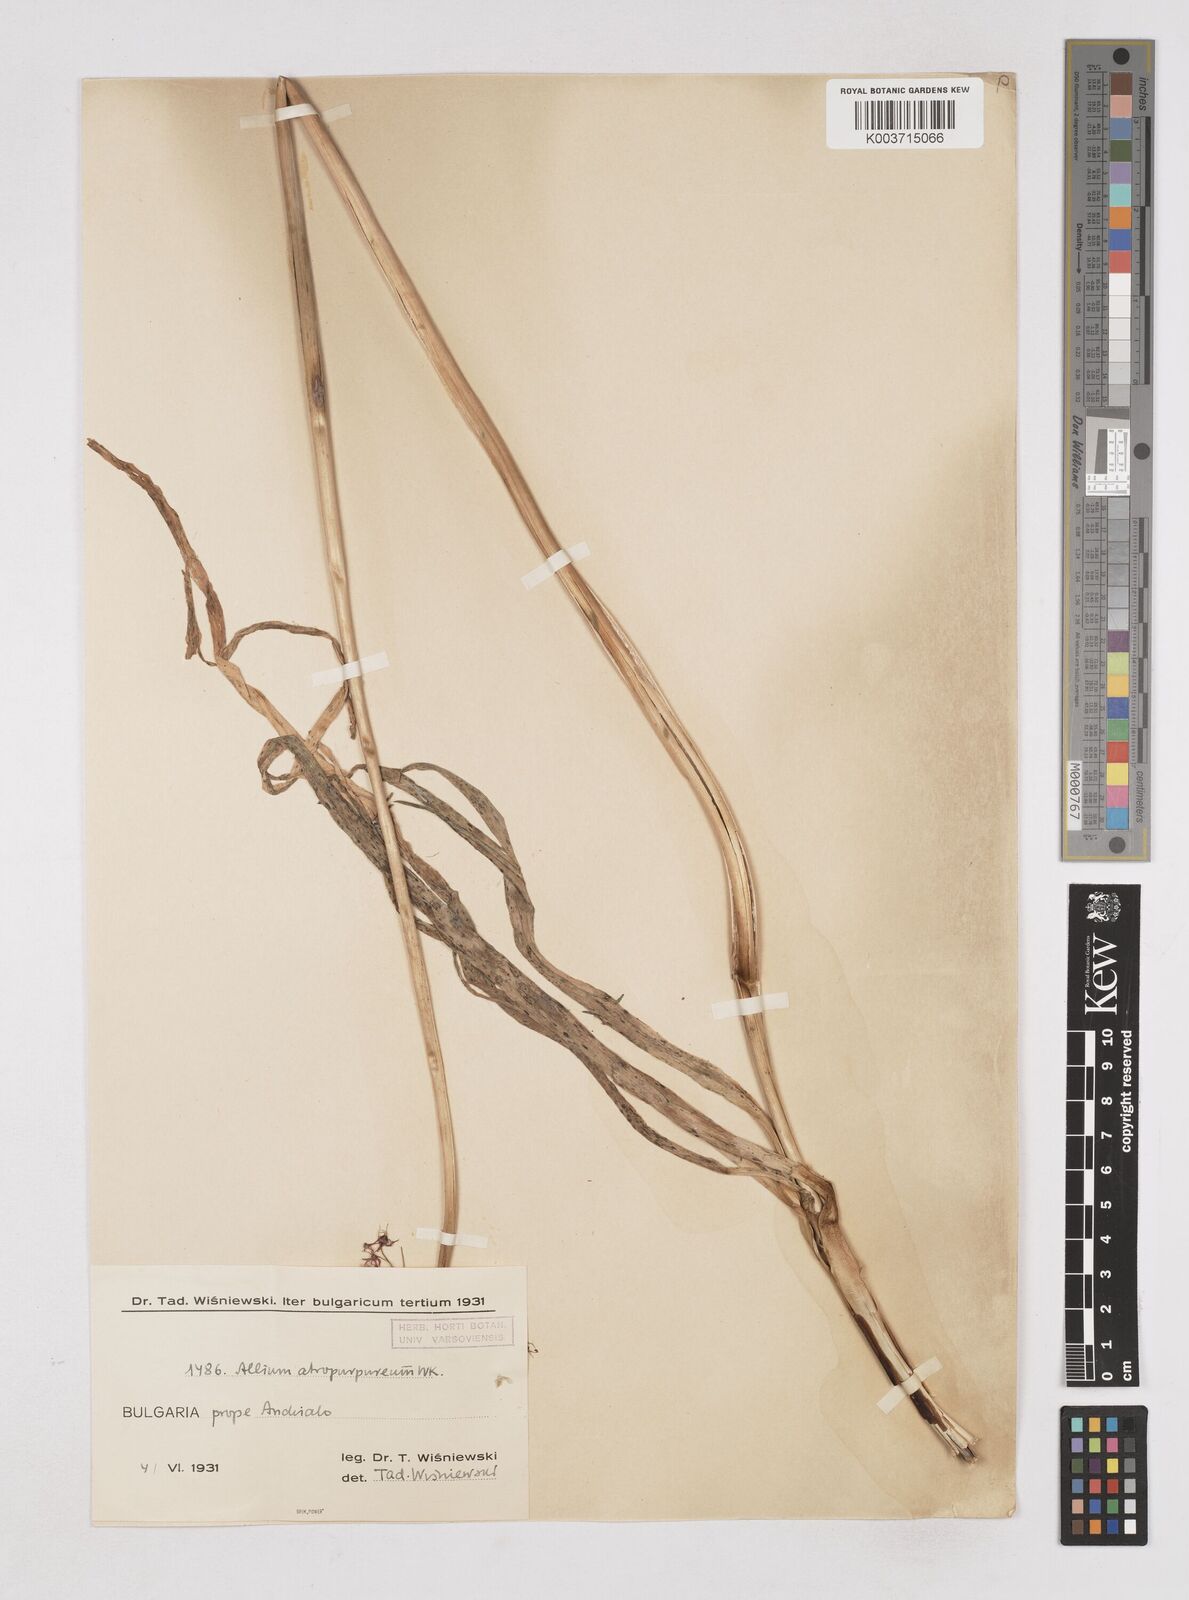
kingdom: Plantae
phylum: Tracheophyta
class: Liliopsida
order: Asparagales
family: Amaryllidaceae
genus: Allium
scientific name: Allium atropurpureum
